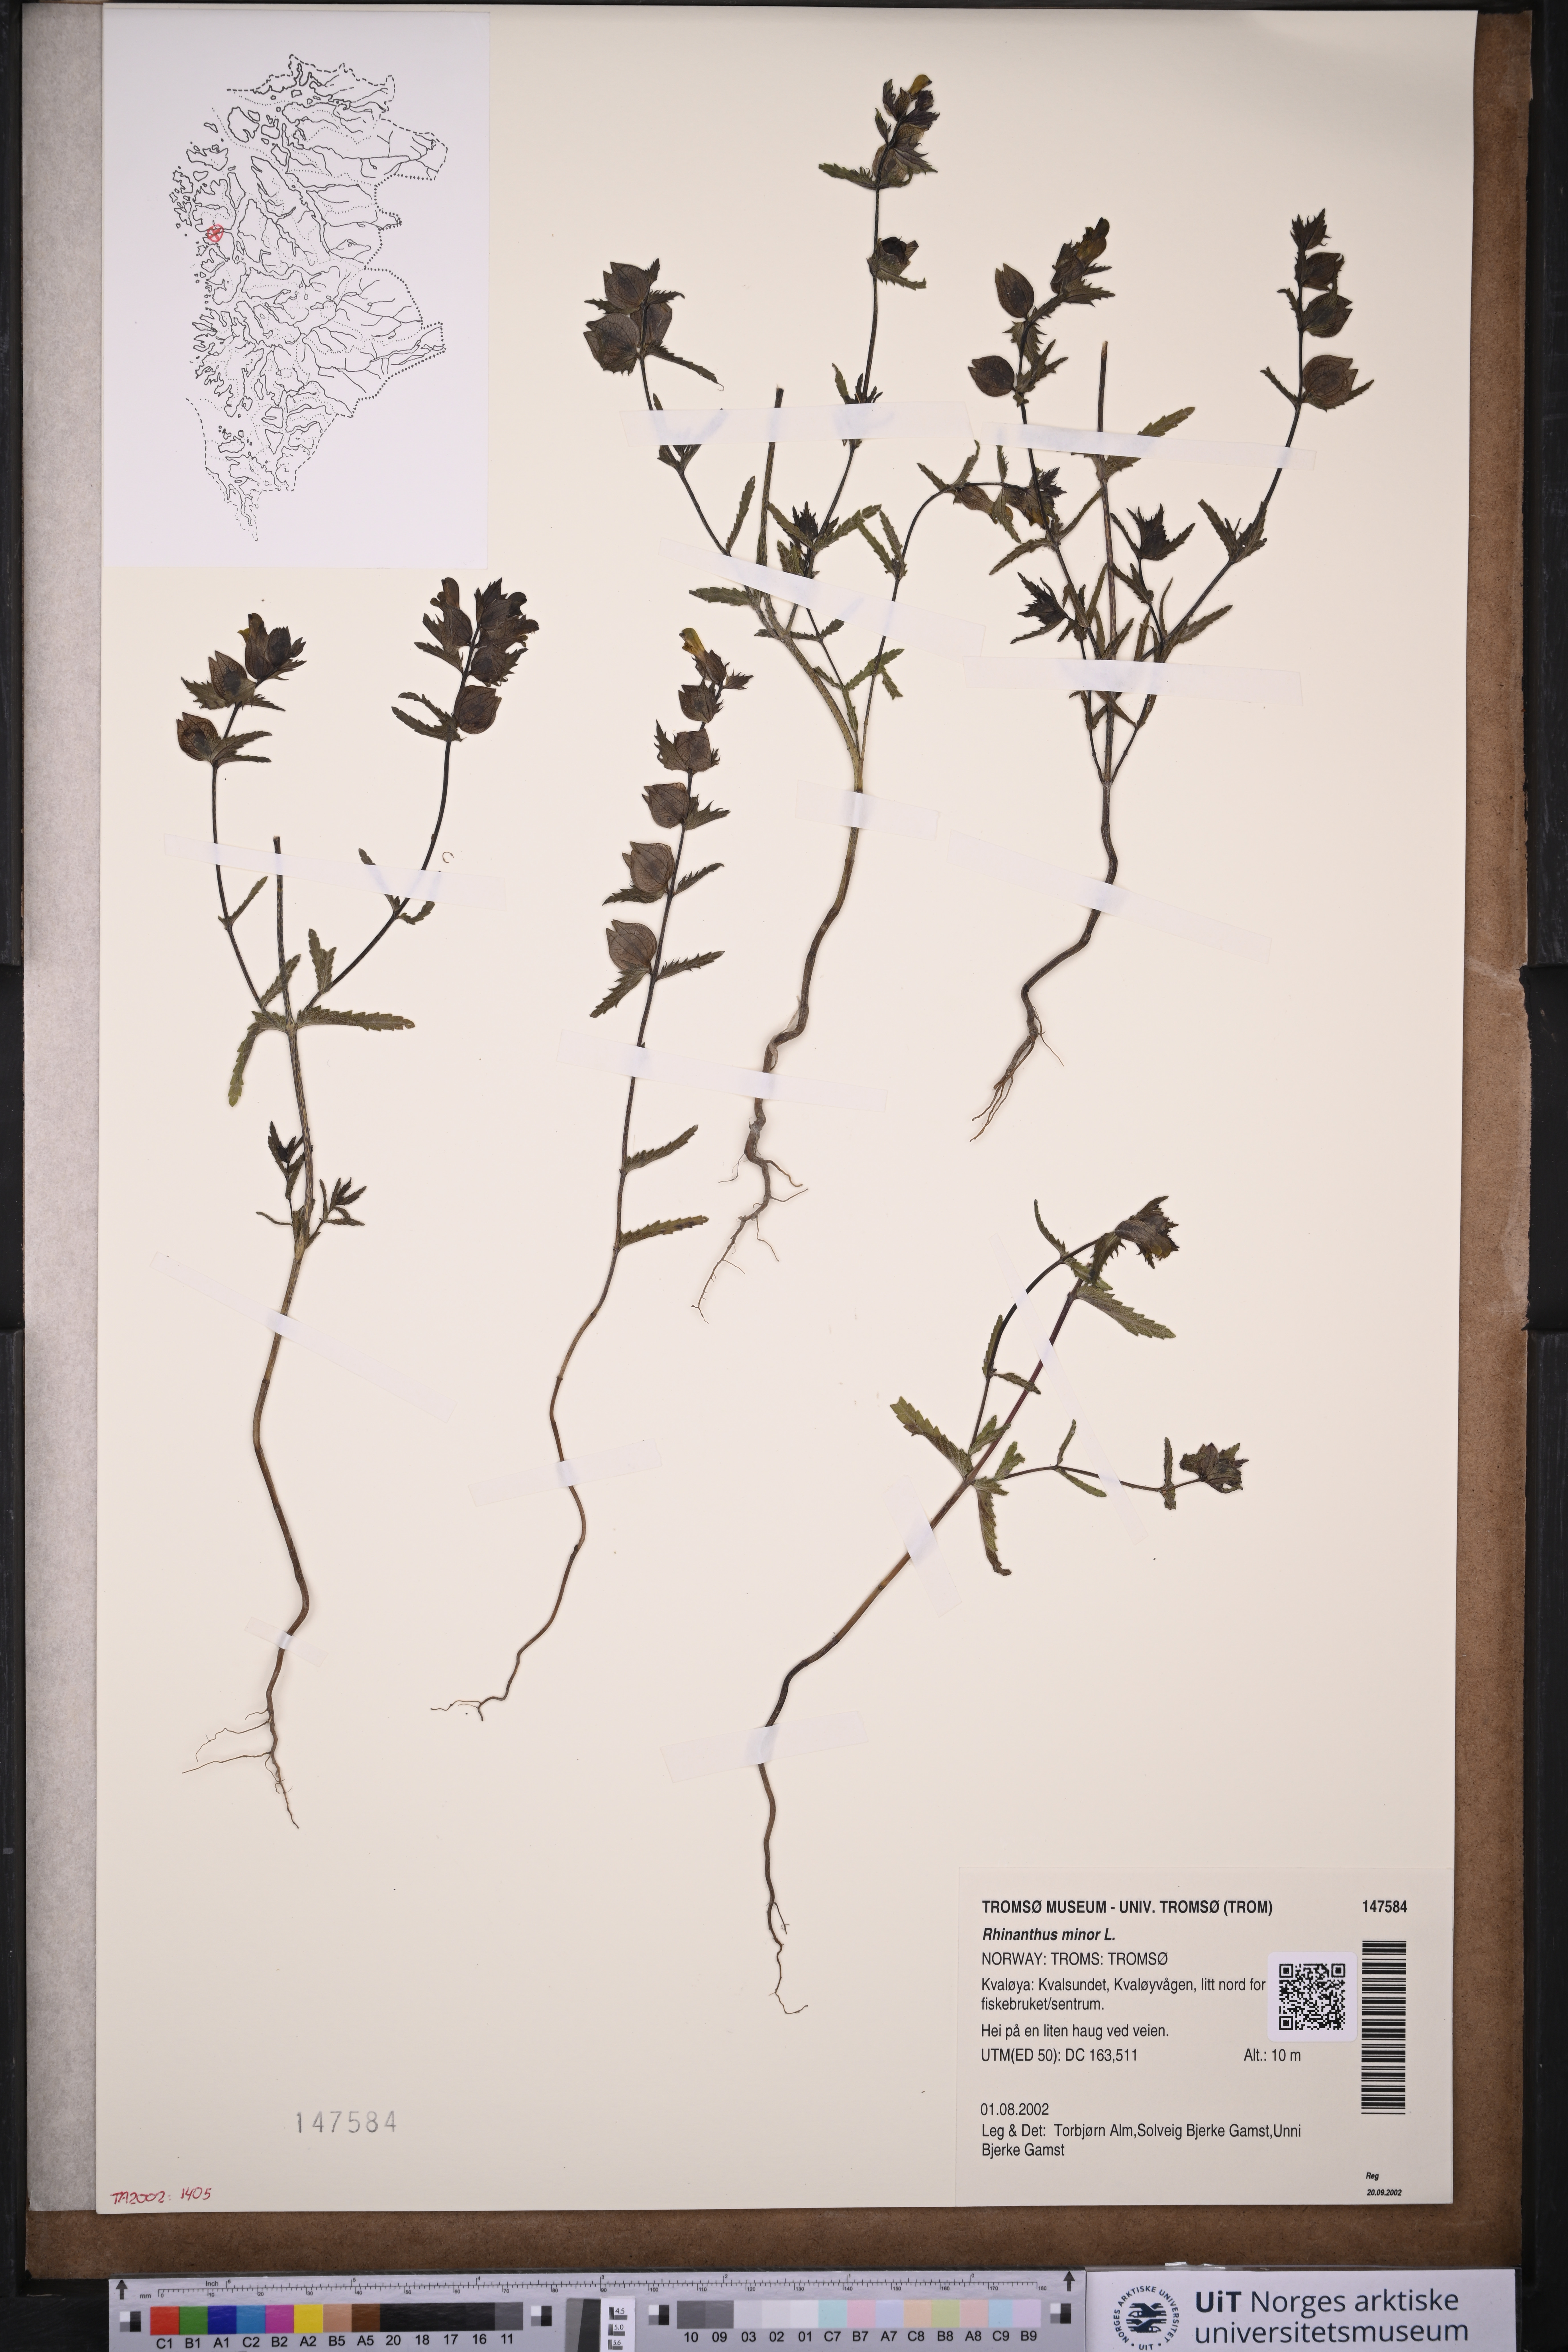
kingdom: Plantae
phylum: Tracheophyta
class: Magnoliopsida
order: Lamiales
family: Orobanchaceae
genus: Rhinanthus
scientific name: Rhinanthus minor
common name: Yellow-rattle
